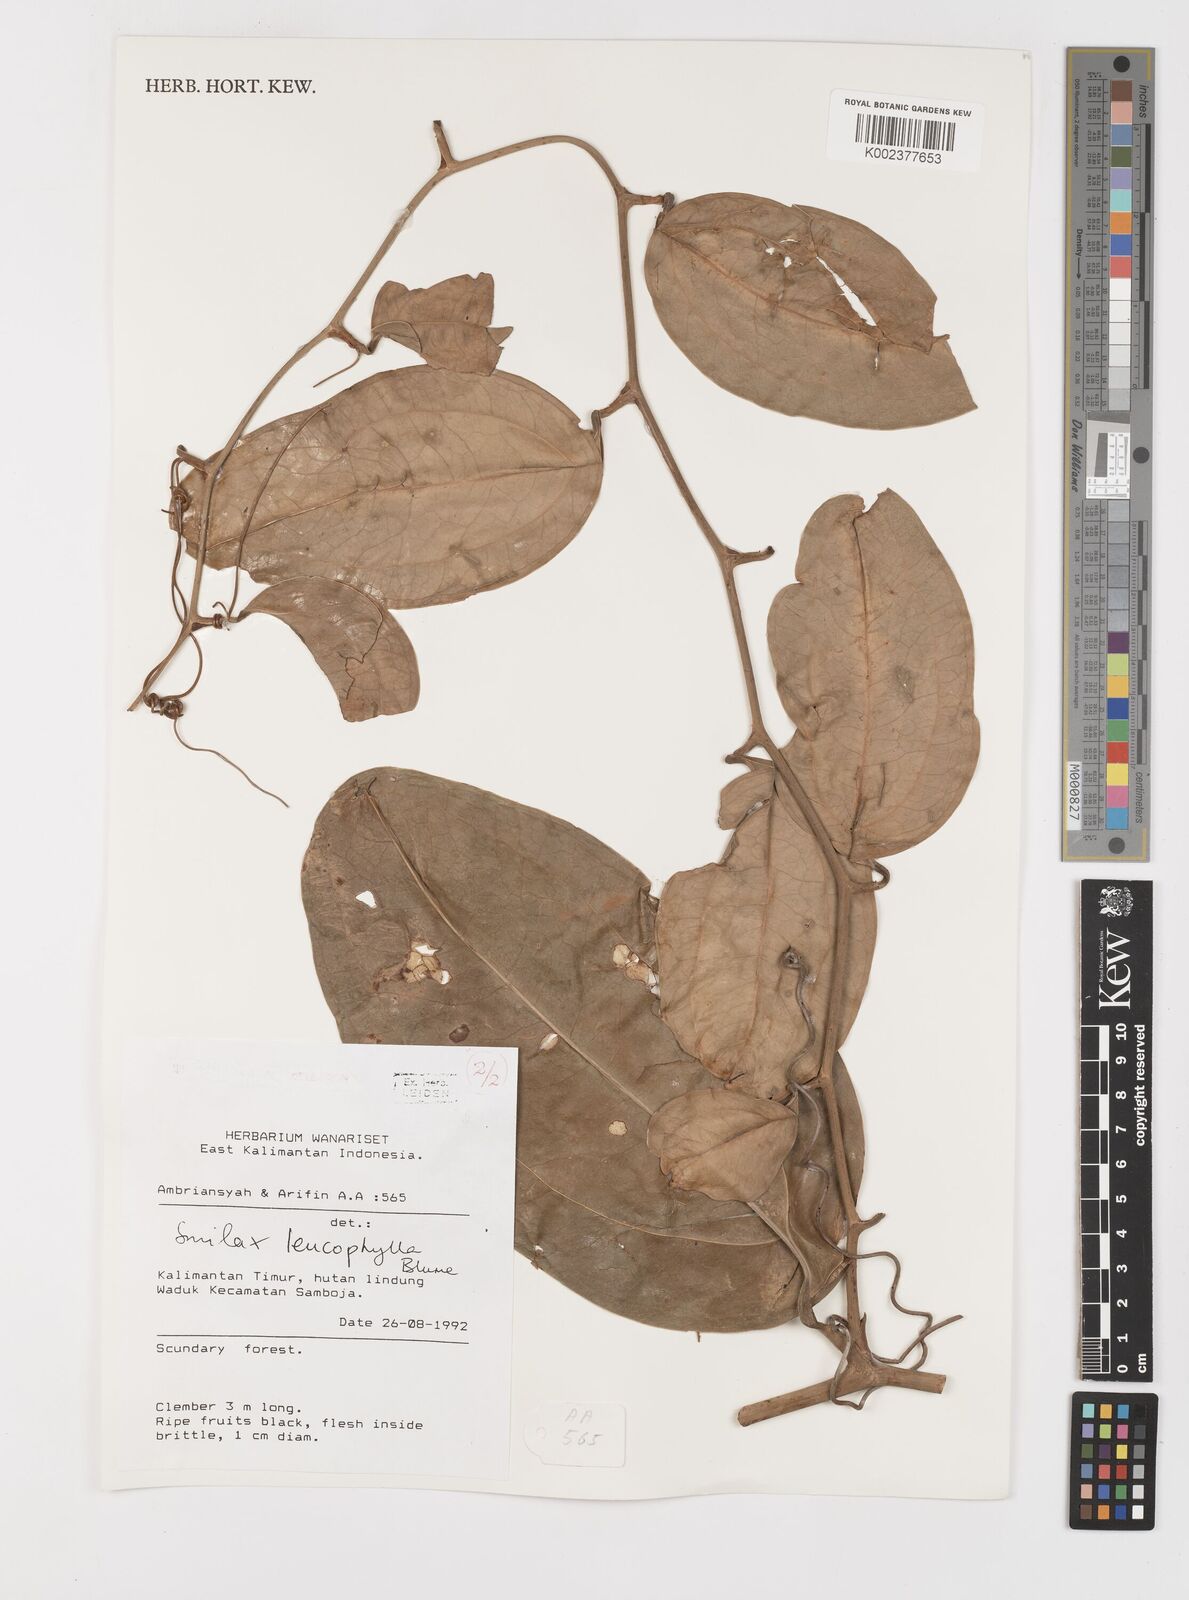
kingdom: Plantae
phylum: Tracheophyta
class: Liliopsida
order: Liliales
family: Smilacaceae
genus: Smilax
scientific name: Smilax leucophylla
